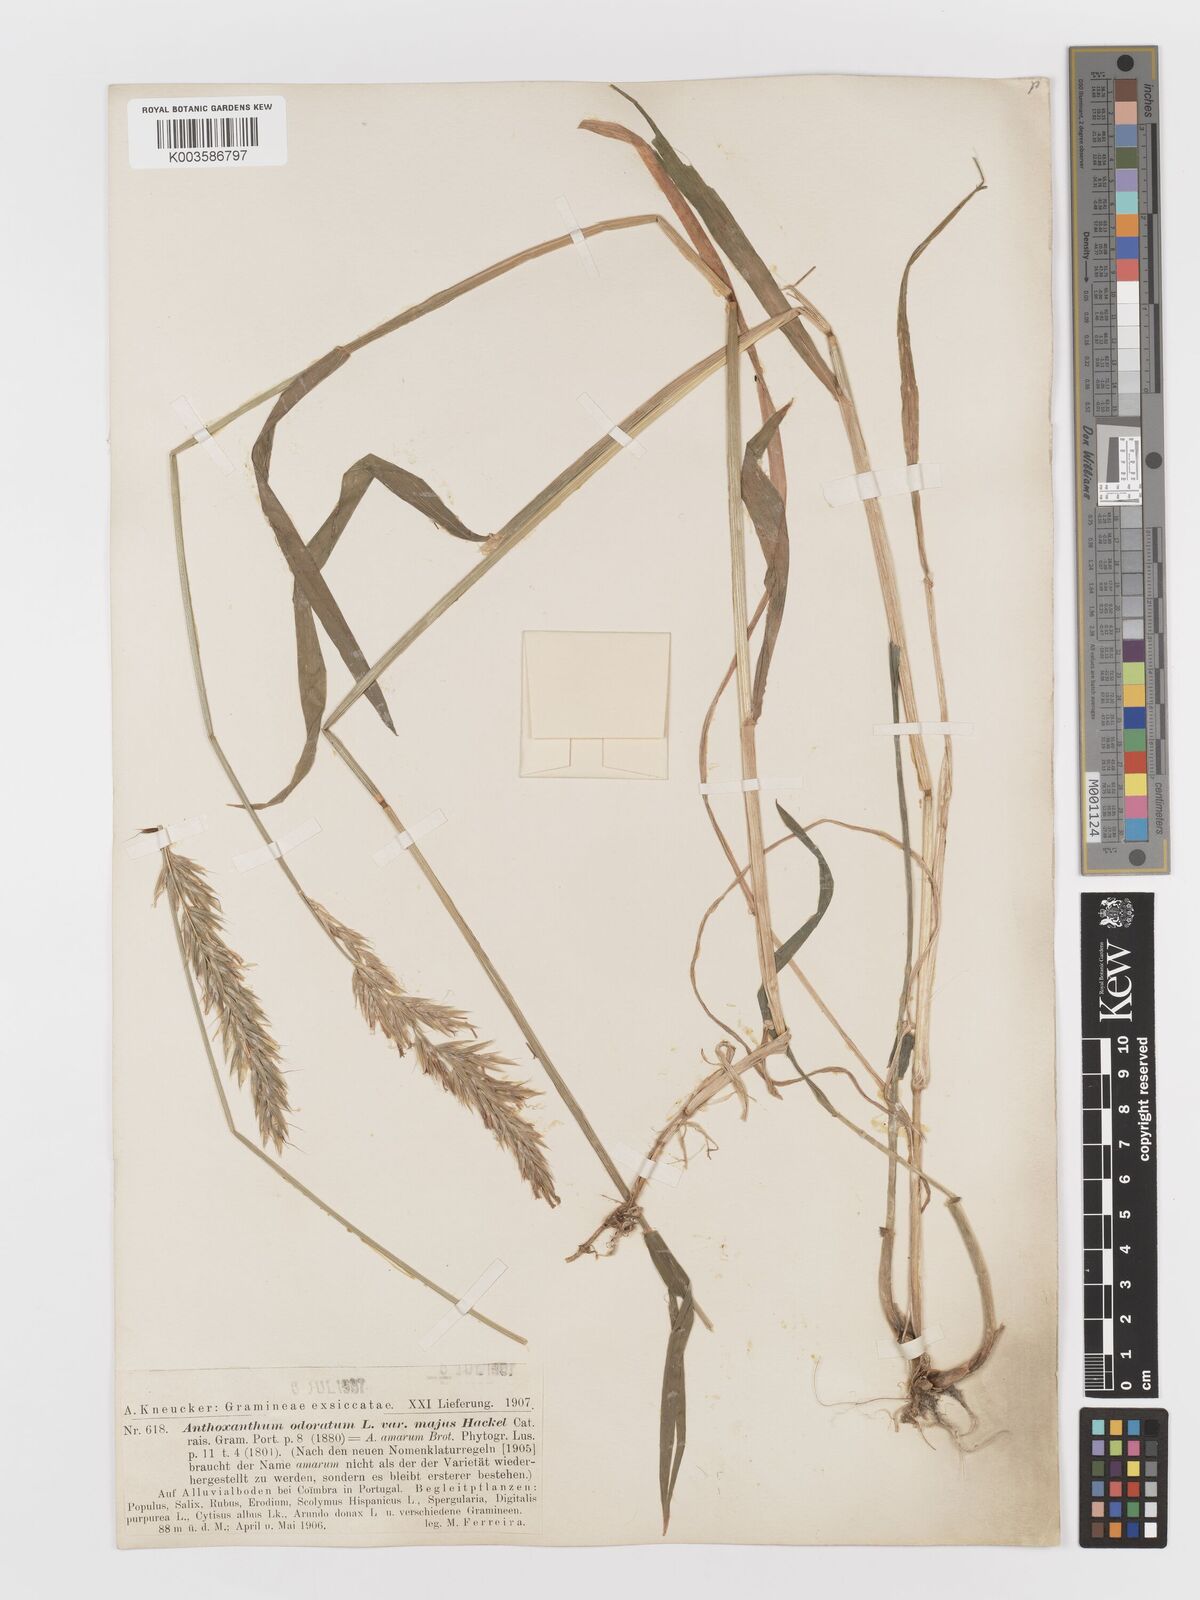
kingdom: Plantae
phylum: Tracheophyta
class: Liliopsida
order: Poales
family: Poaceae
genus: Anthoxanthum
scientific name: Anthoxanthum amarum
